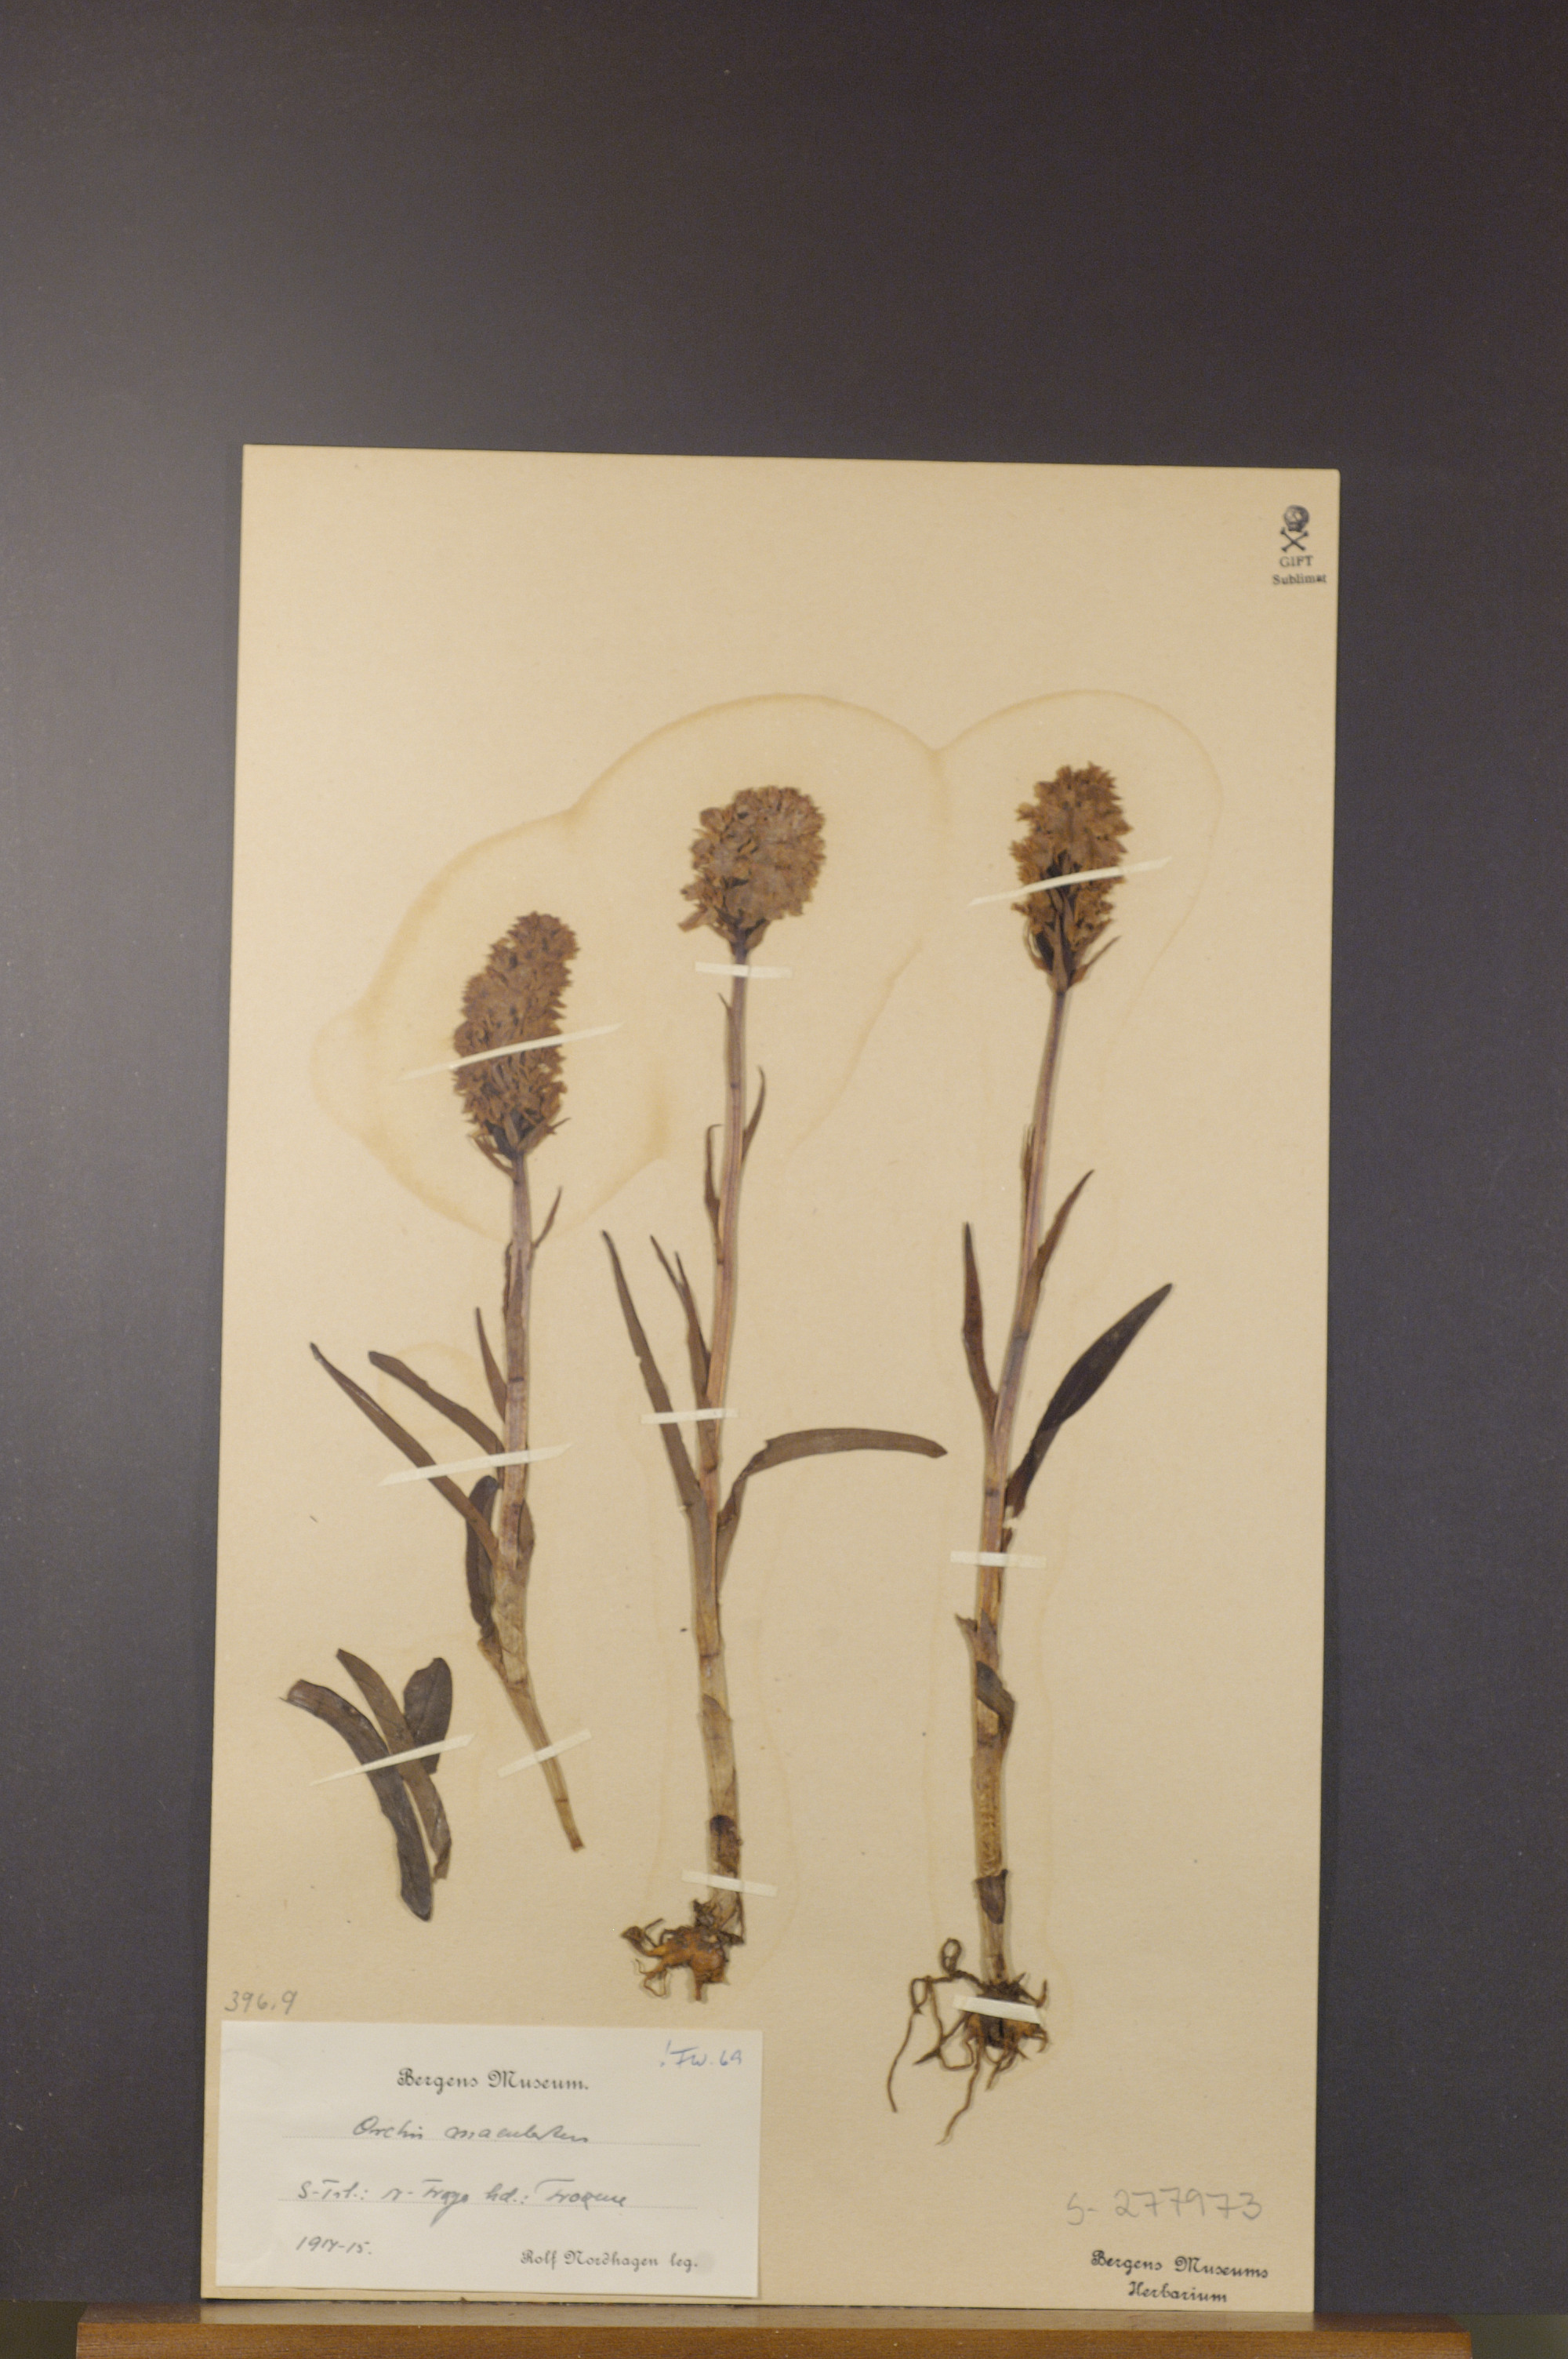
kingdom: Plantae
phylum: Tracheophyta
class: Liliopsida
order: Asparagales
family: Orchidaceae
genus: Dactylorhiza
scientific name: Dactylorhiza maculata
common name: Heath spotted-orchid
